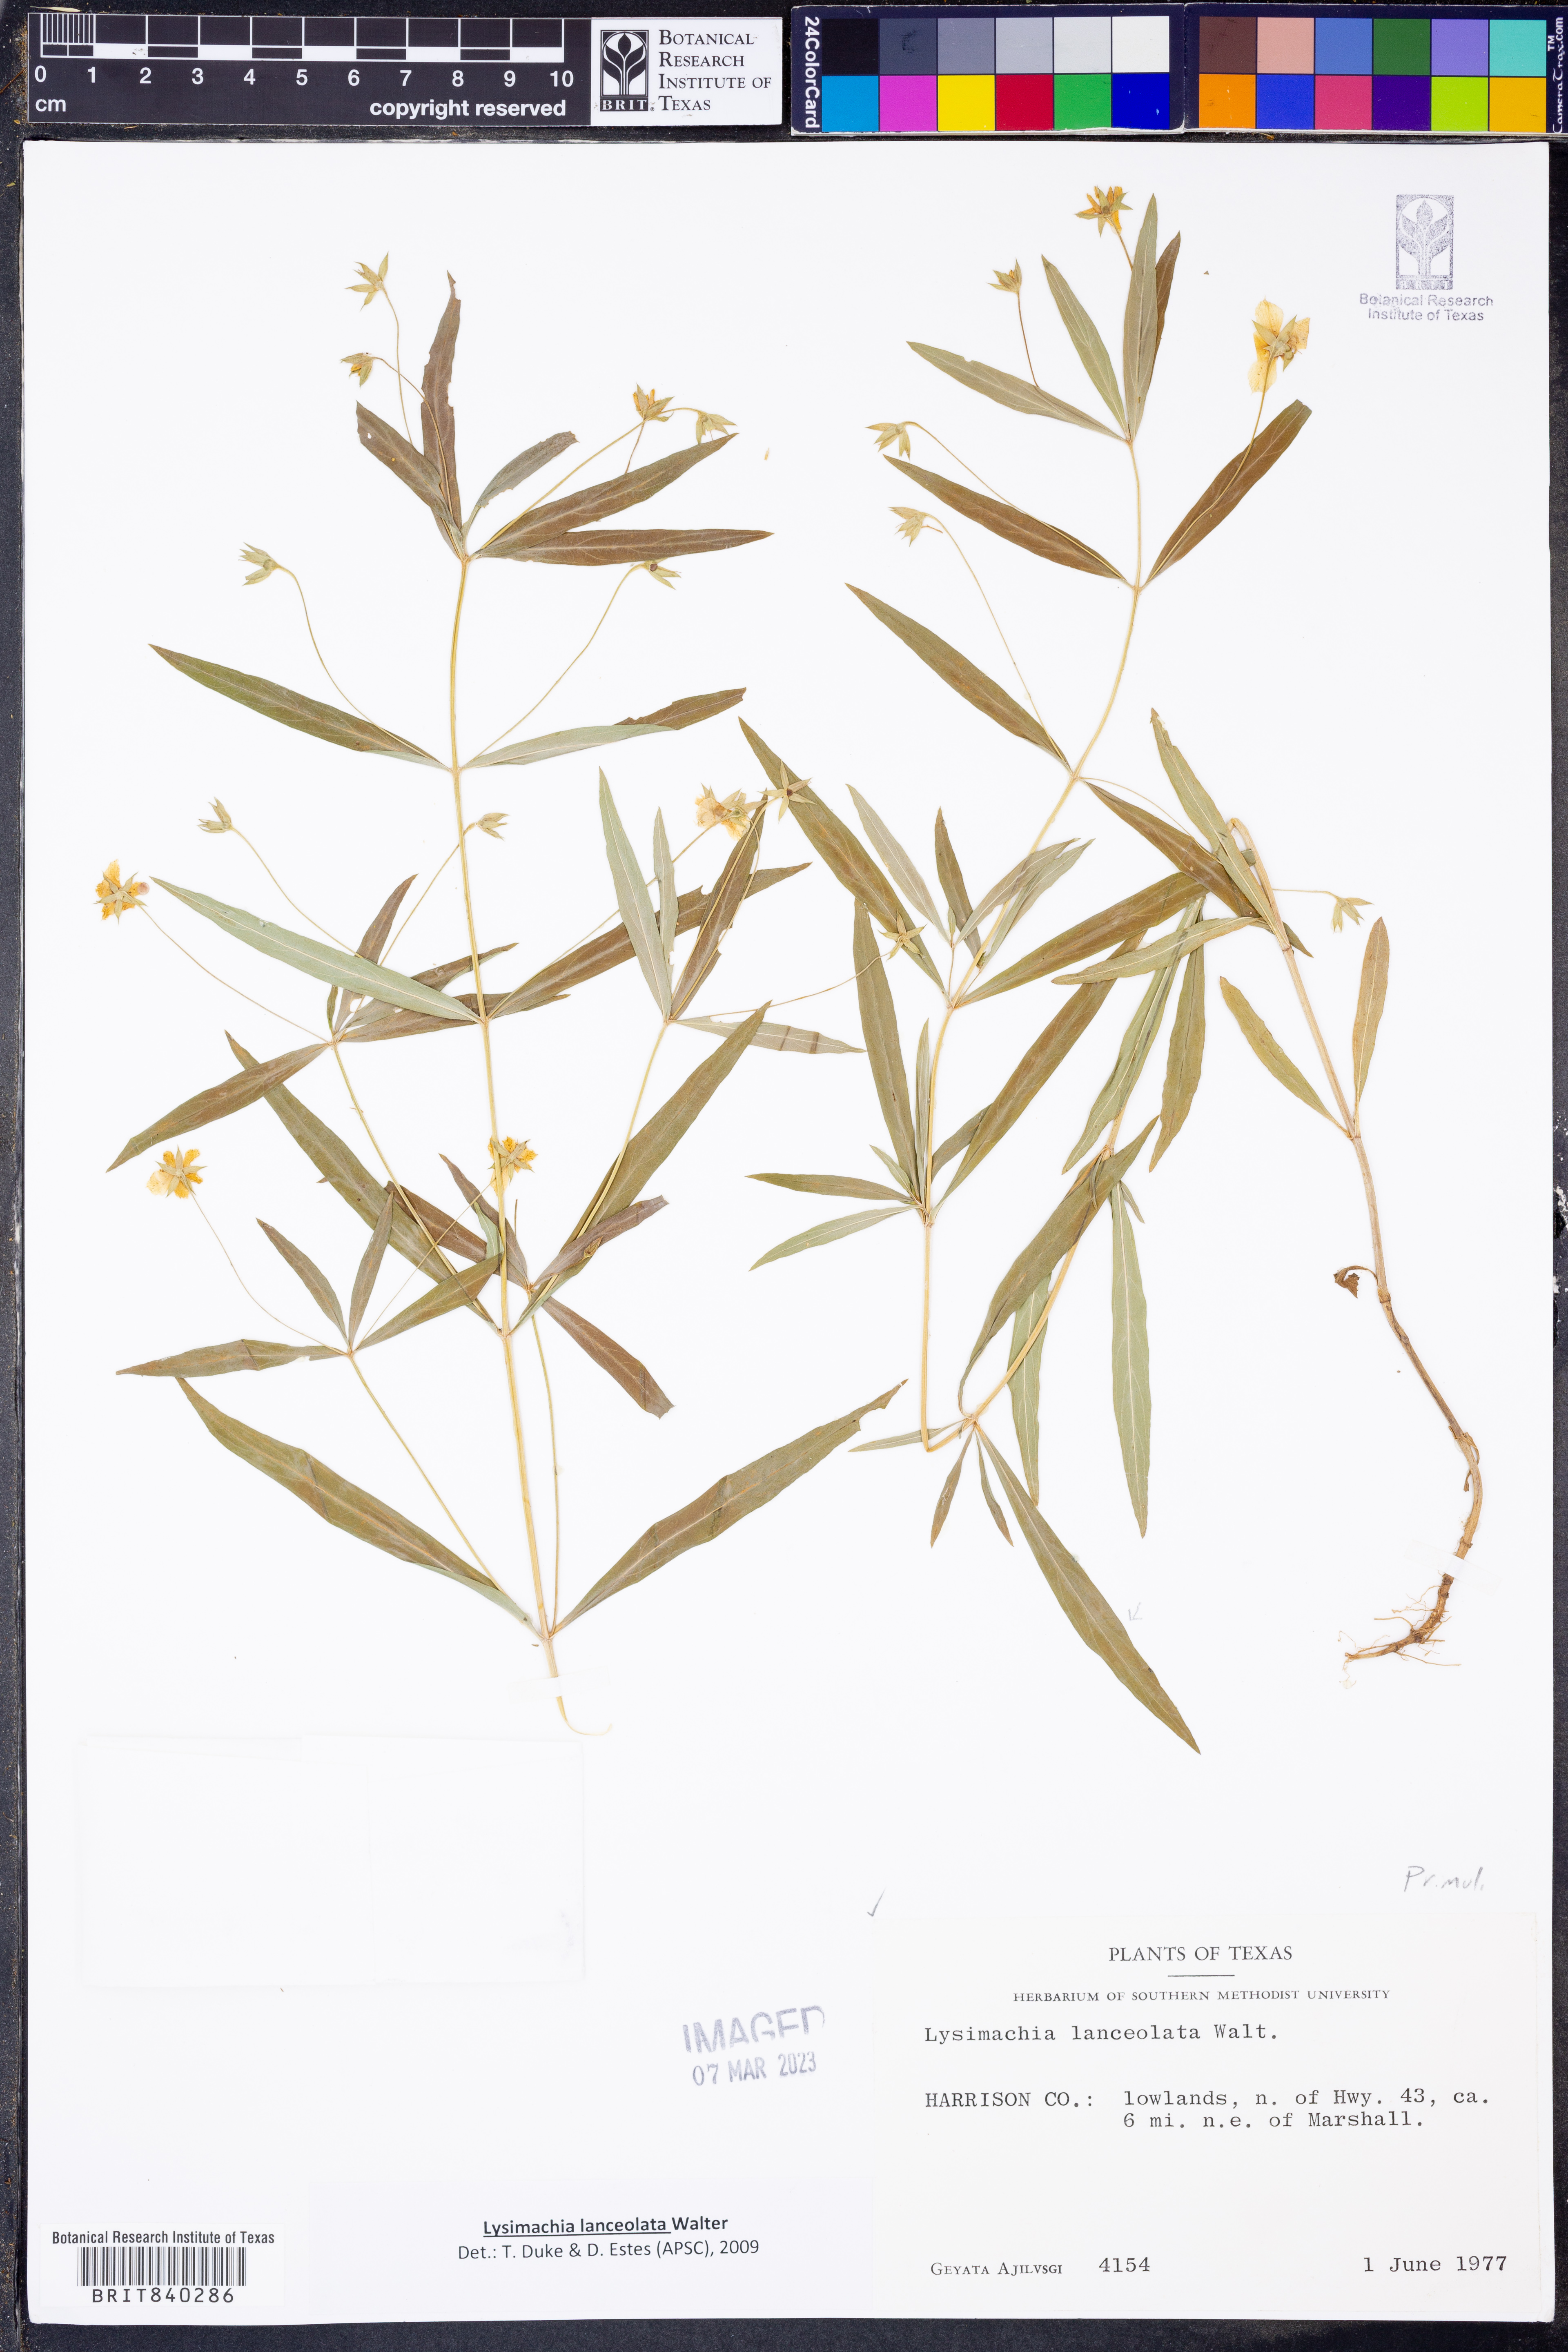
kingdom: Plantae
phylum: Tracheophyta
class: Magnoliopsida
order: Ericales
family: Primulaceae
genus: Lysimachia
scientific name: Lysimachia lanceolata
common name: Lance-leaved loosestrife
